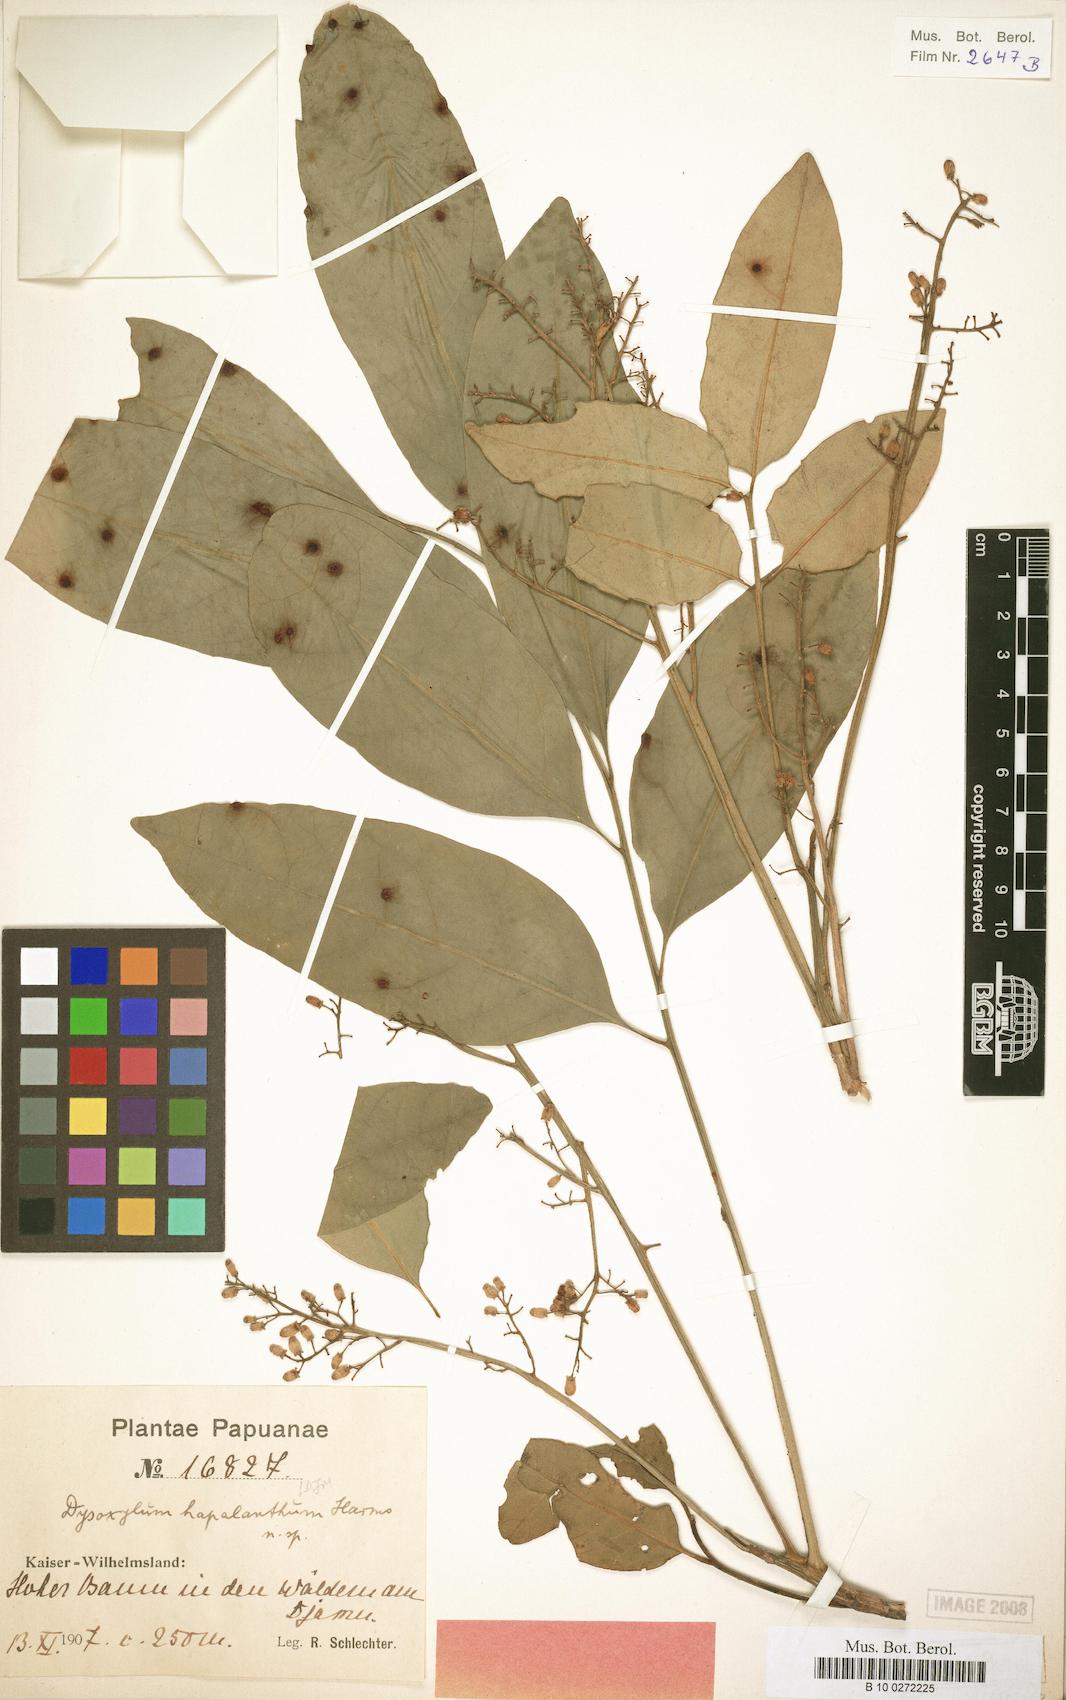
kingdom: Plantae
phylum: Tracheophyta
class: Magnoliopsida
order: Sapindales
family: Meliaceae
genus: Prasoxylon
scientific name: Prasoxylon hapalanthum
